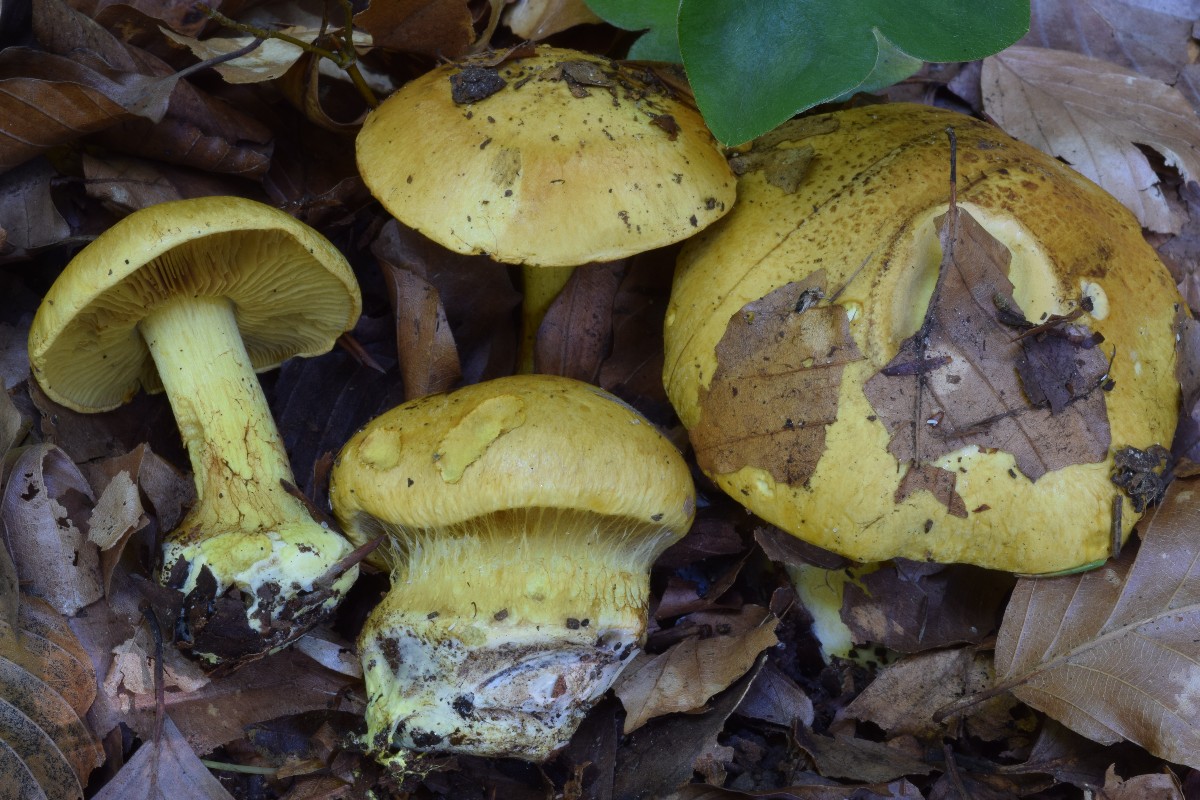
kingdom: Fungi
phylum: Basidiomycota
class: Agaricomycetes
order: Agaricales
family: Cortinariaceae
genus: Calonarius
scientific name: Calonarius splendens
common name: sirene-slørhat
